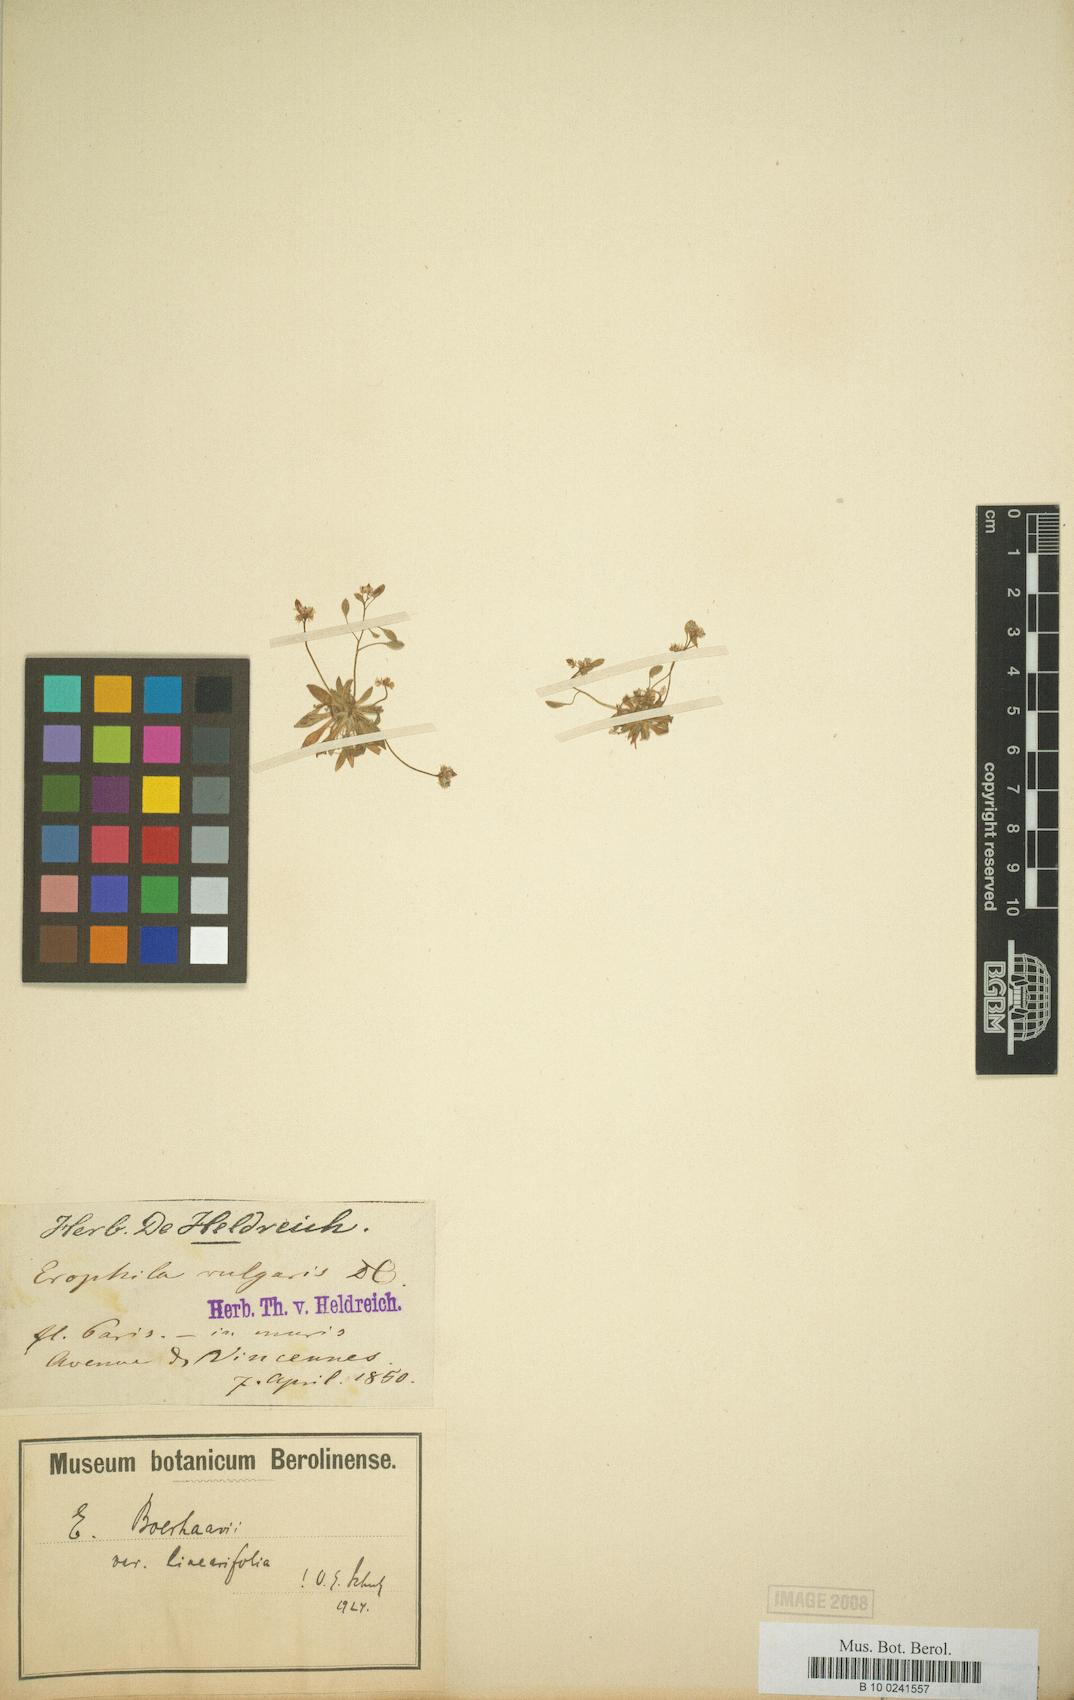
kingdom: Plantae
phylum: Tracheophyta
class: Magnoliopsida
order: Brassicales
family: Brassicaceae
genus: Draba
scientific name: Draba verna
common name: Spring draba
